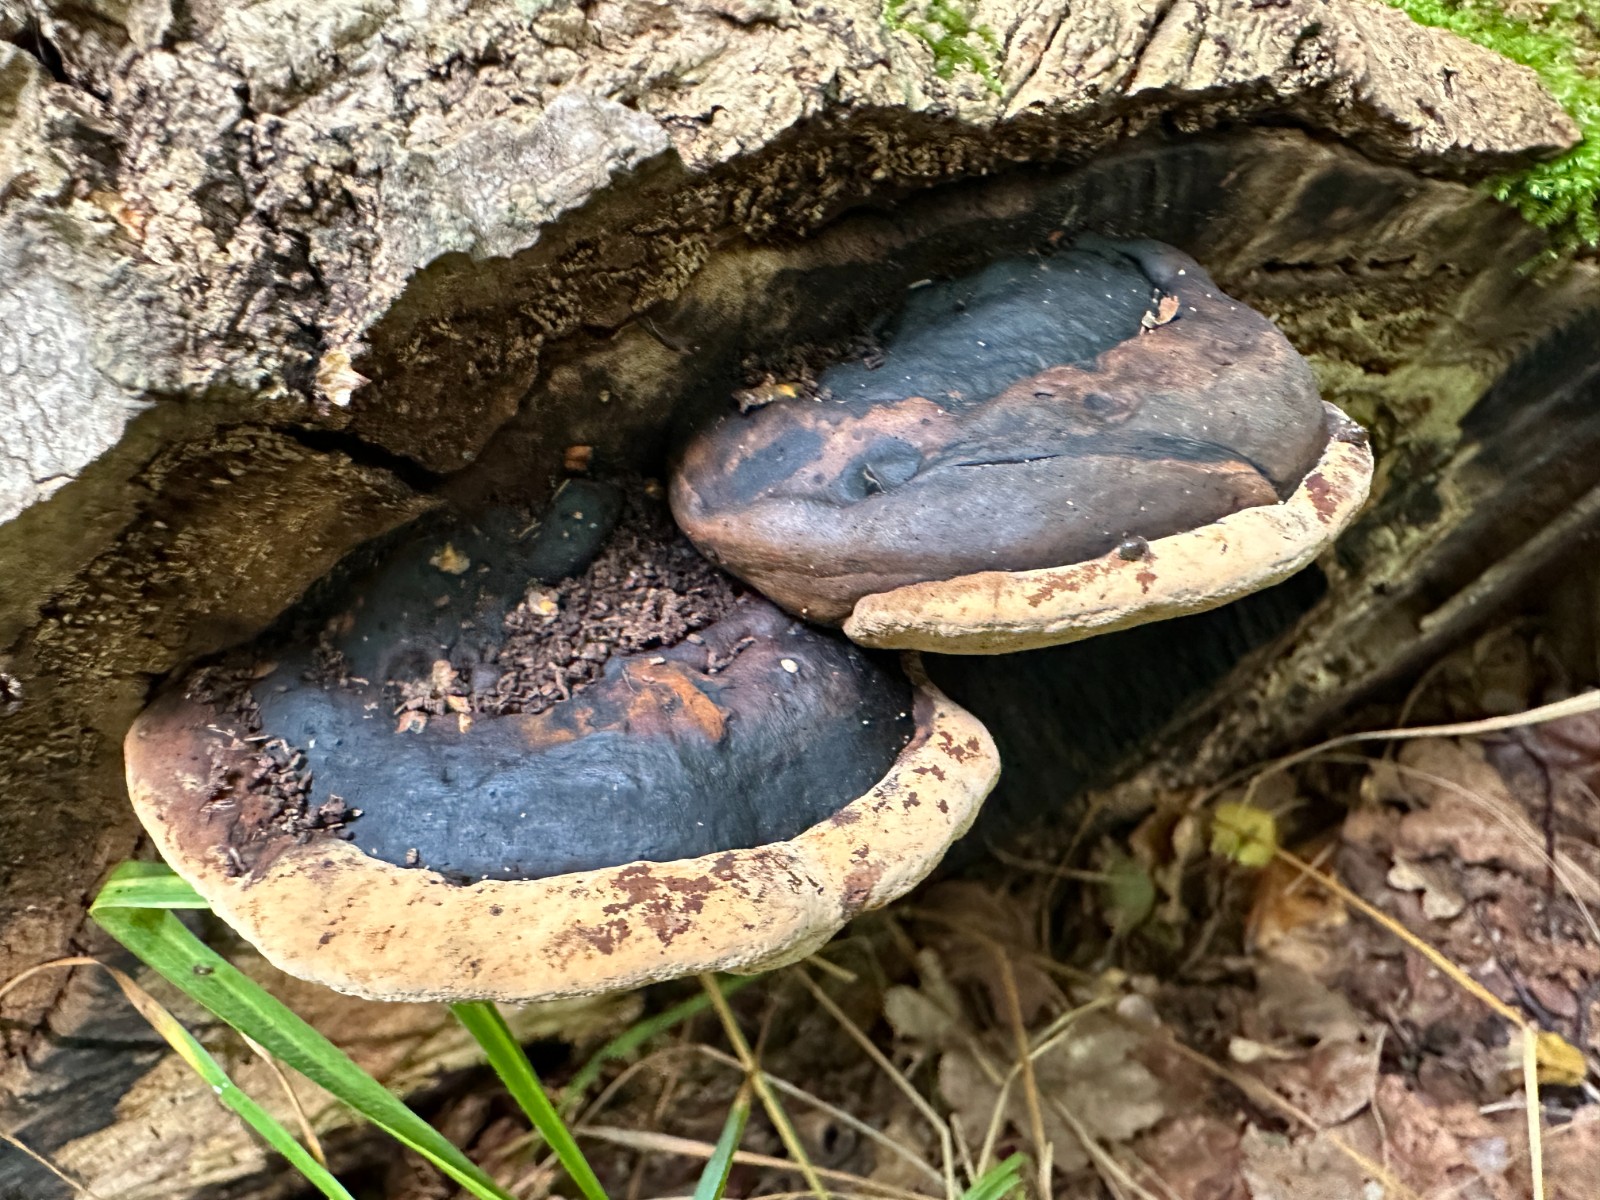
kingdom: Fungi
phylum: Basidiomycota
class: Agaricomycetes
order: Hymenochaetales
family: Hymenochaetaceae
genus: Phellinus
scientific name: Phellinus populicola
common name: poppel-ildporesvamp
